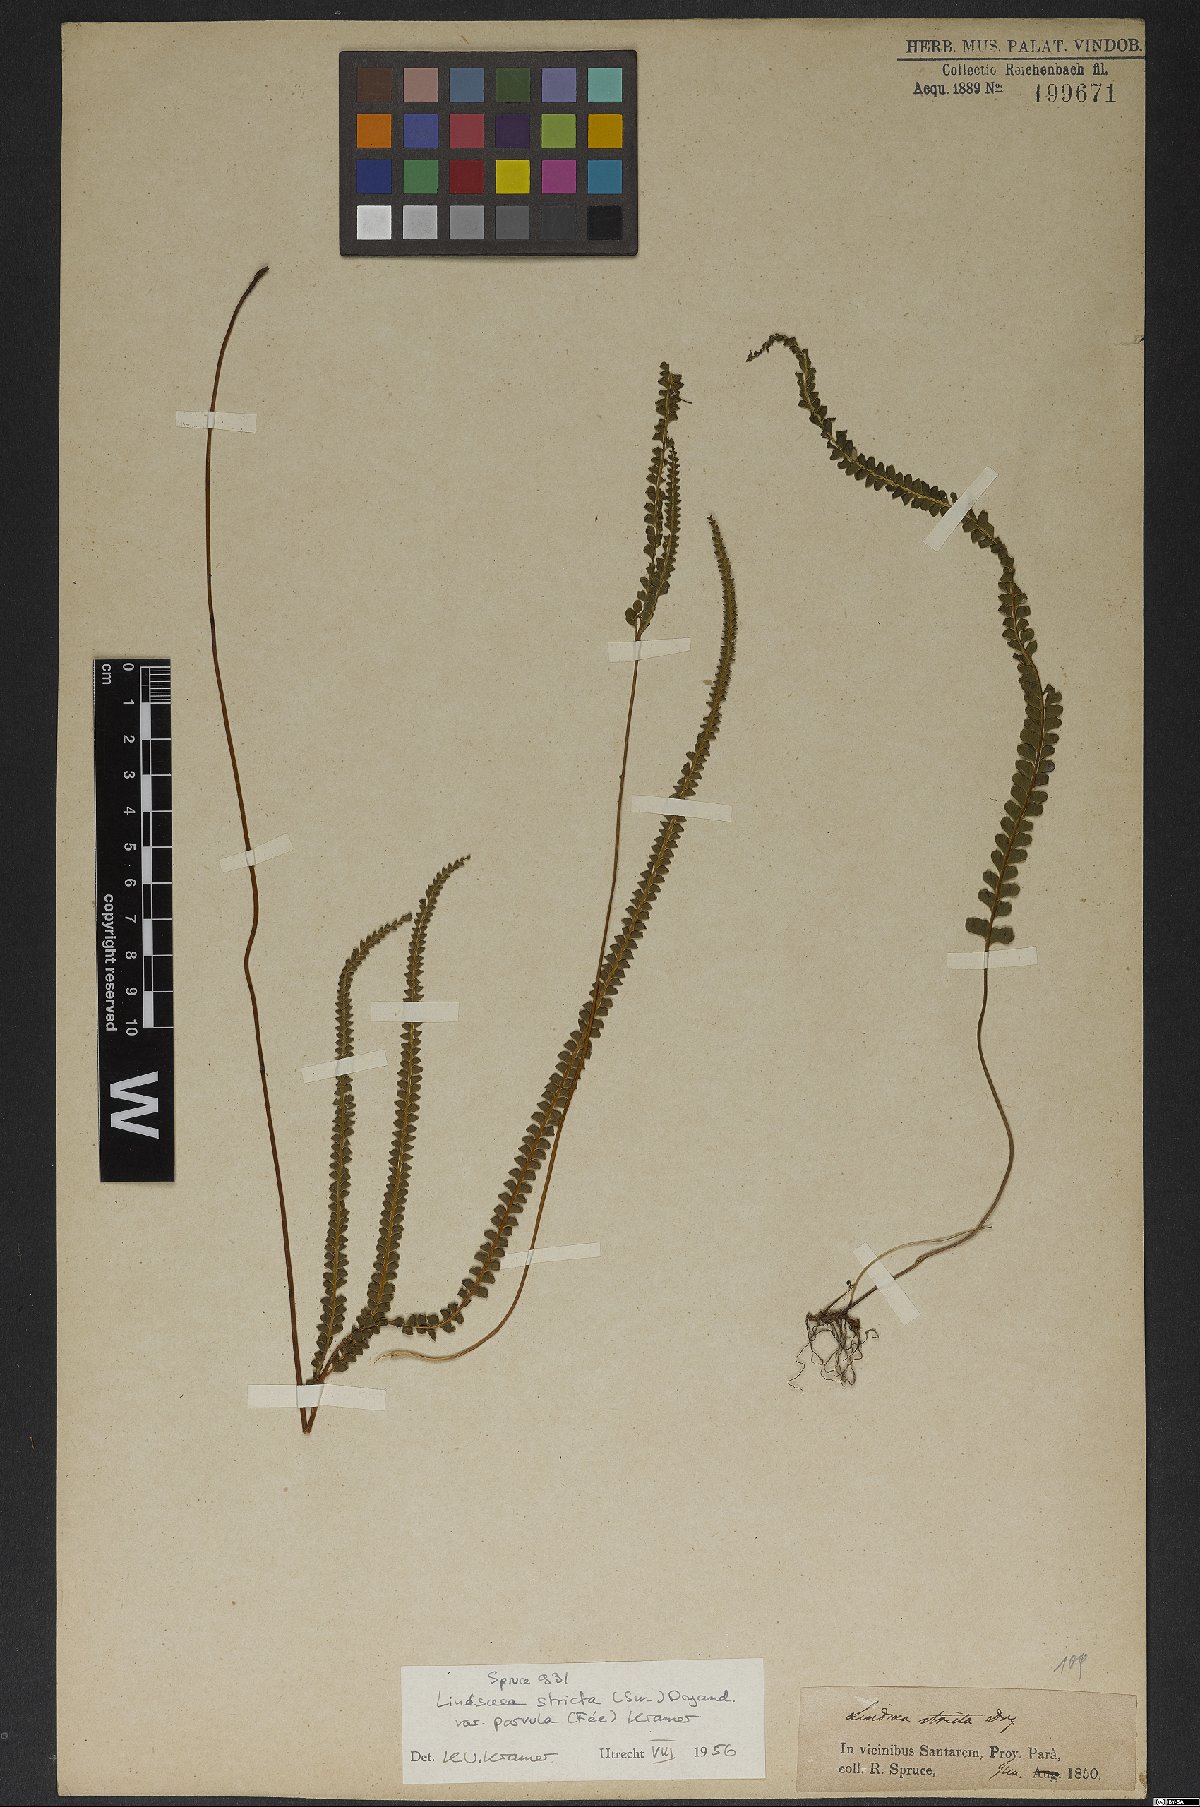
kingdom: Plantae
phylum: Tracheophyta
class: Polypodiopsida
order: Polypodiales
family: Lindsaeaceae
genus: Lindsaea
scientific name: Lindsaea stricta
